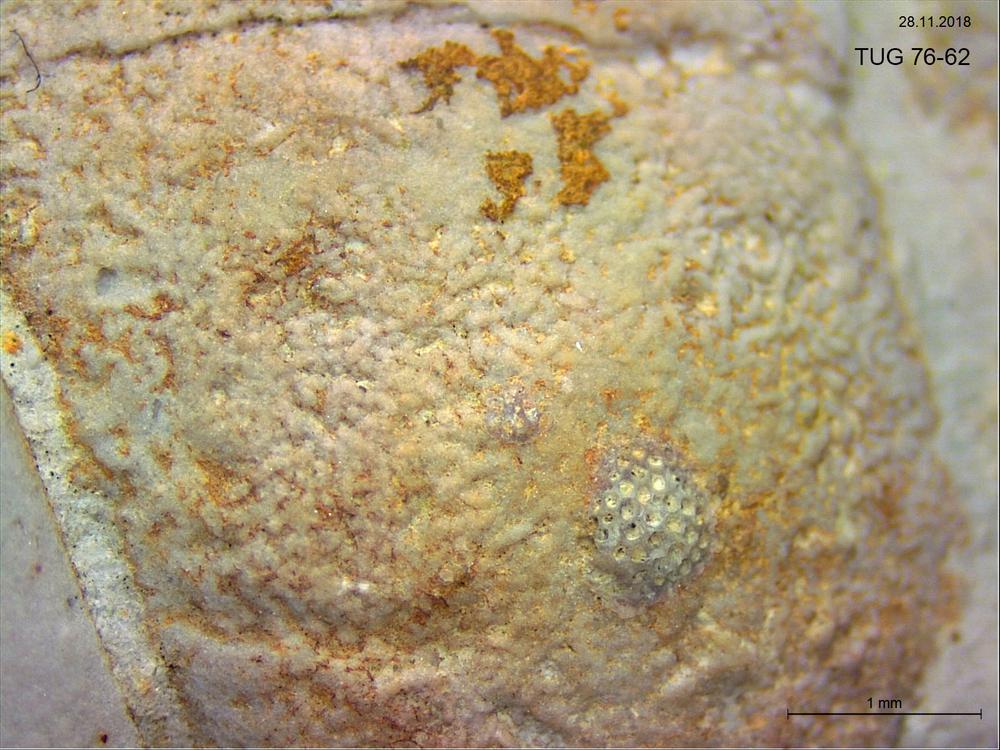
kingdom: Animalia
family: Coprulidae
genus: Coprulus
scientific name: Coprulus
